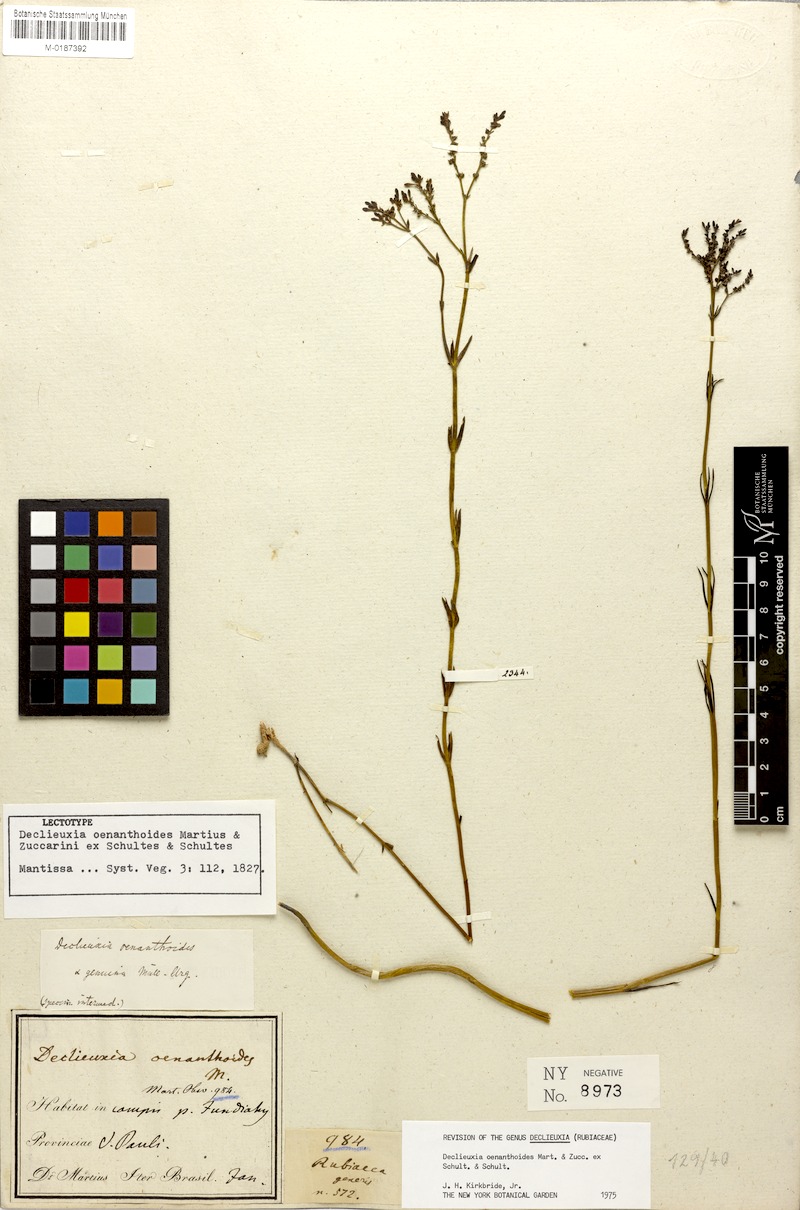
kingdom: Plantae
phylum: Tracheophyta
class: Magnoliopsida
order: Gentianales
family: Rubiaceae
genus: Declieuxia
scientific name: Declieuxia oenanthoides
